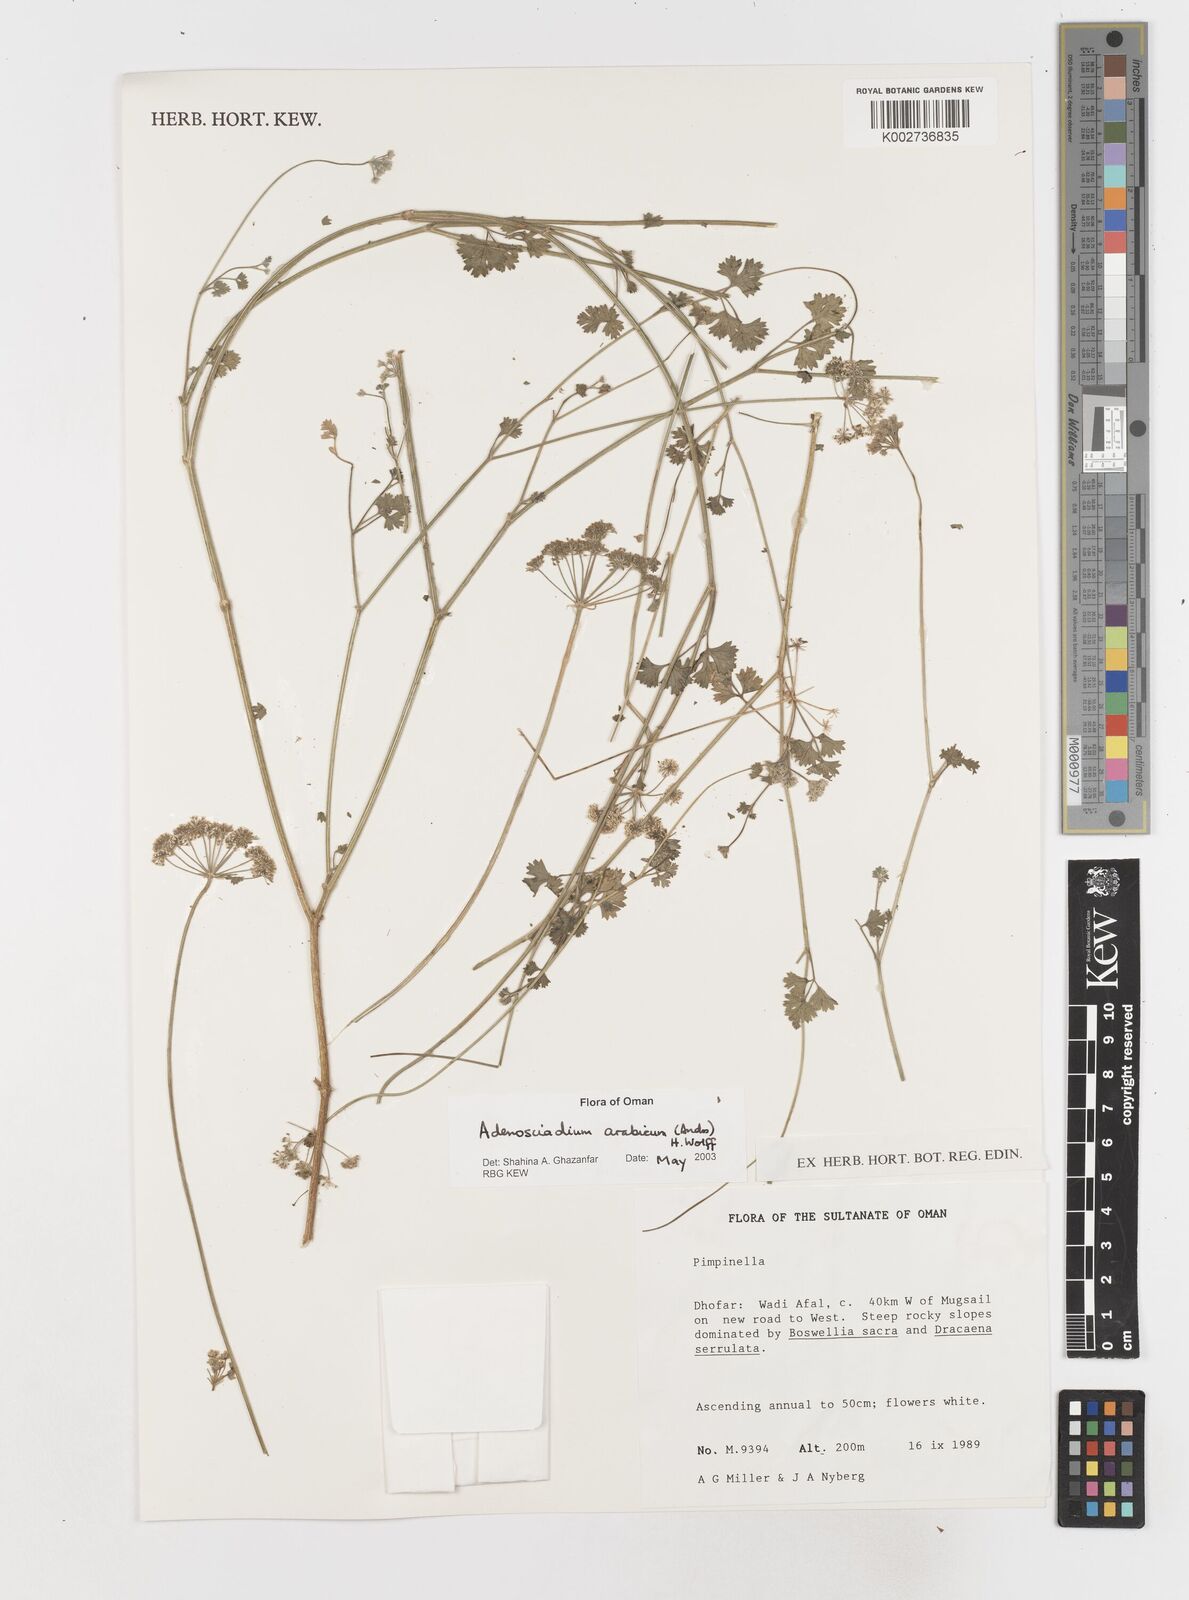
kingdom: Plantae
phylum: Tracheophyta
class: Magnoliopsida
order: Apiales
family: Apiaceae
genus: Adenosciadium
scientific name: Adenosciadium arabicum
